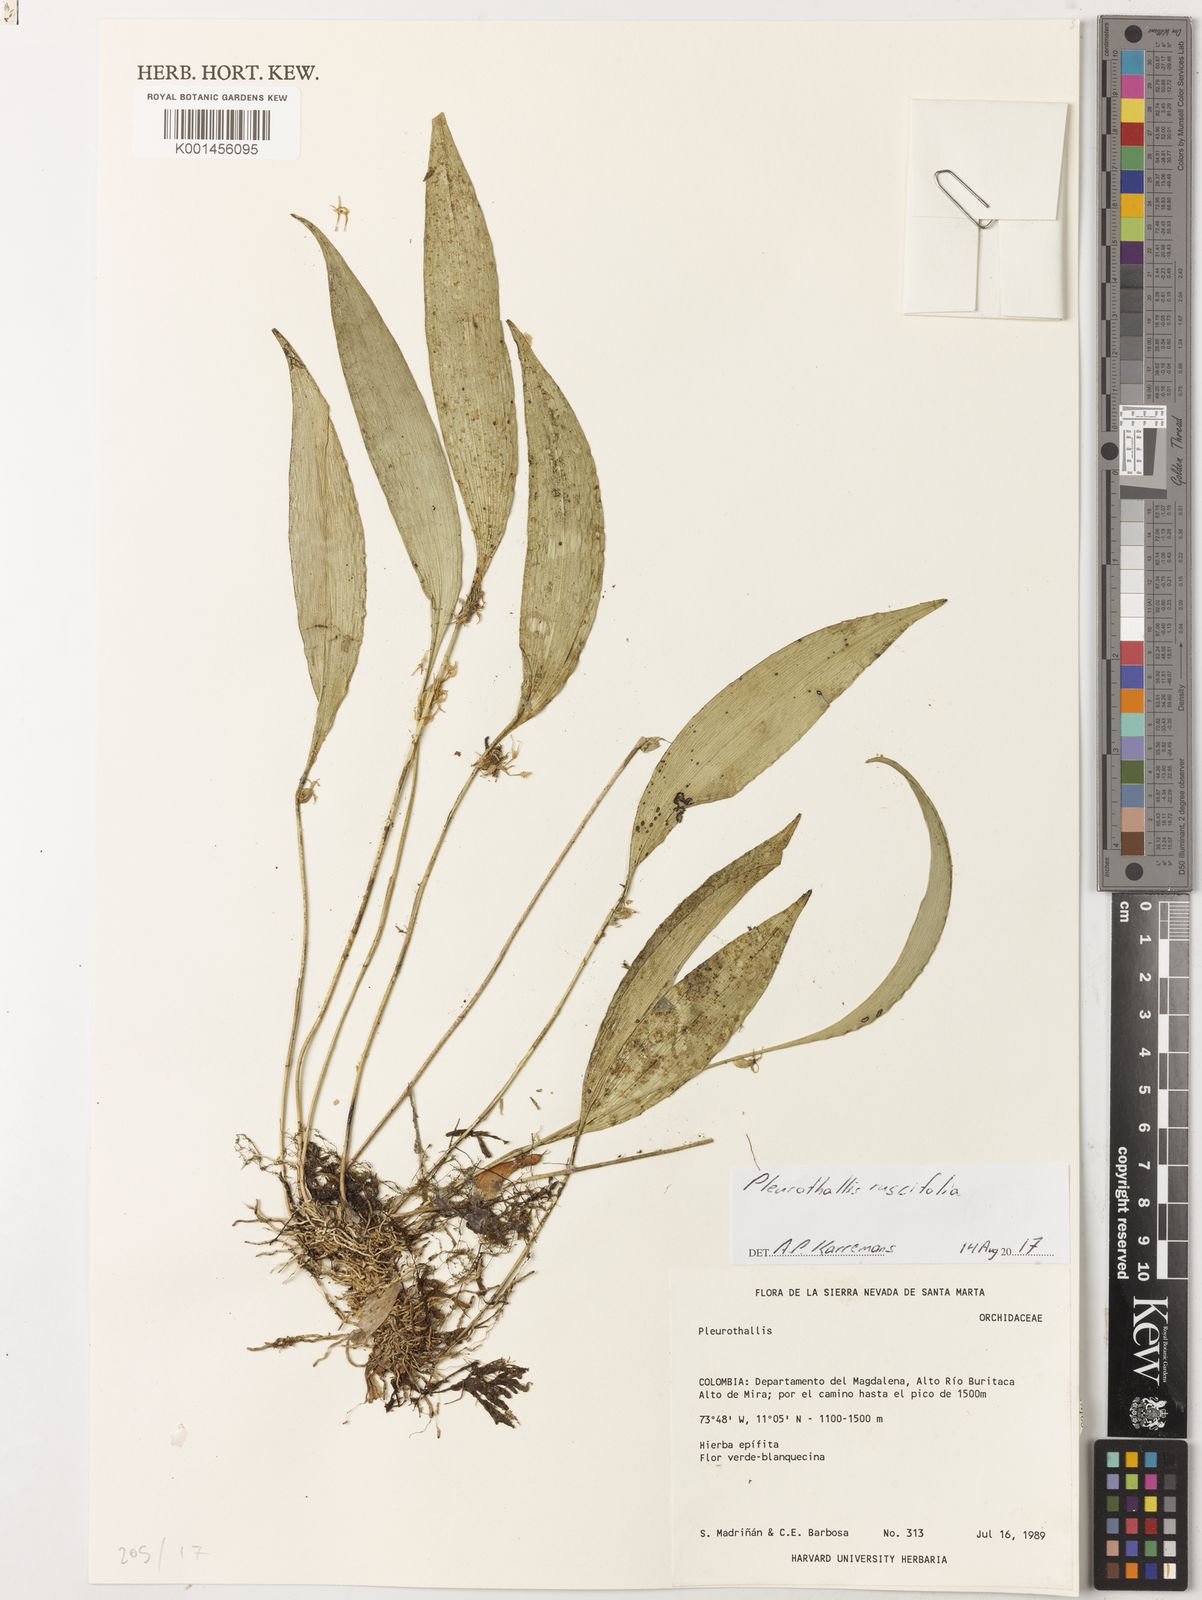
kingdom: Plantae
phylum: Tracheophyta
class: Liliopsida
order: Asparagales
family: Orchidaceae
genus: Pleurothallis
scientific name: Pleurothallis ruscifolia
